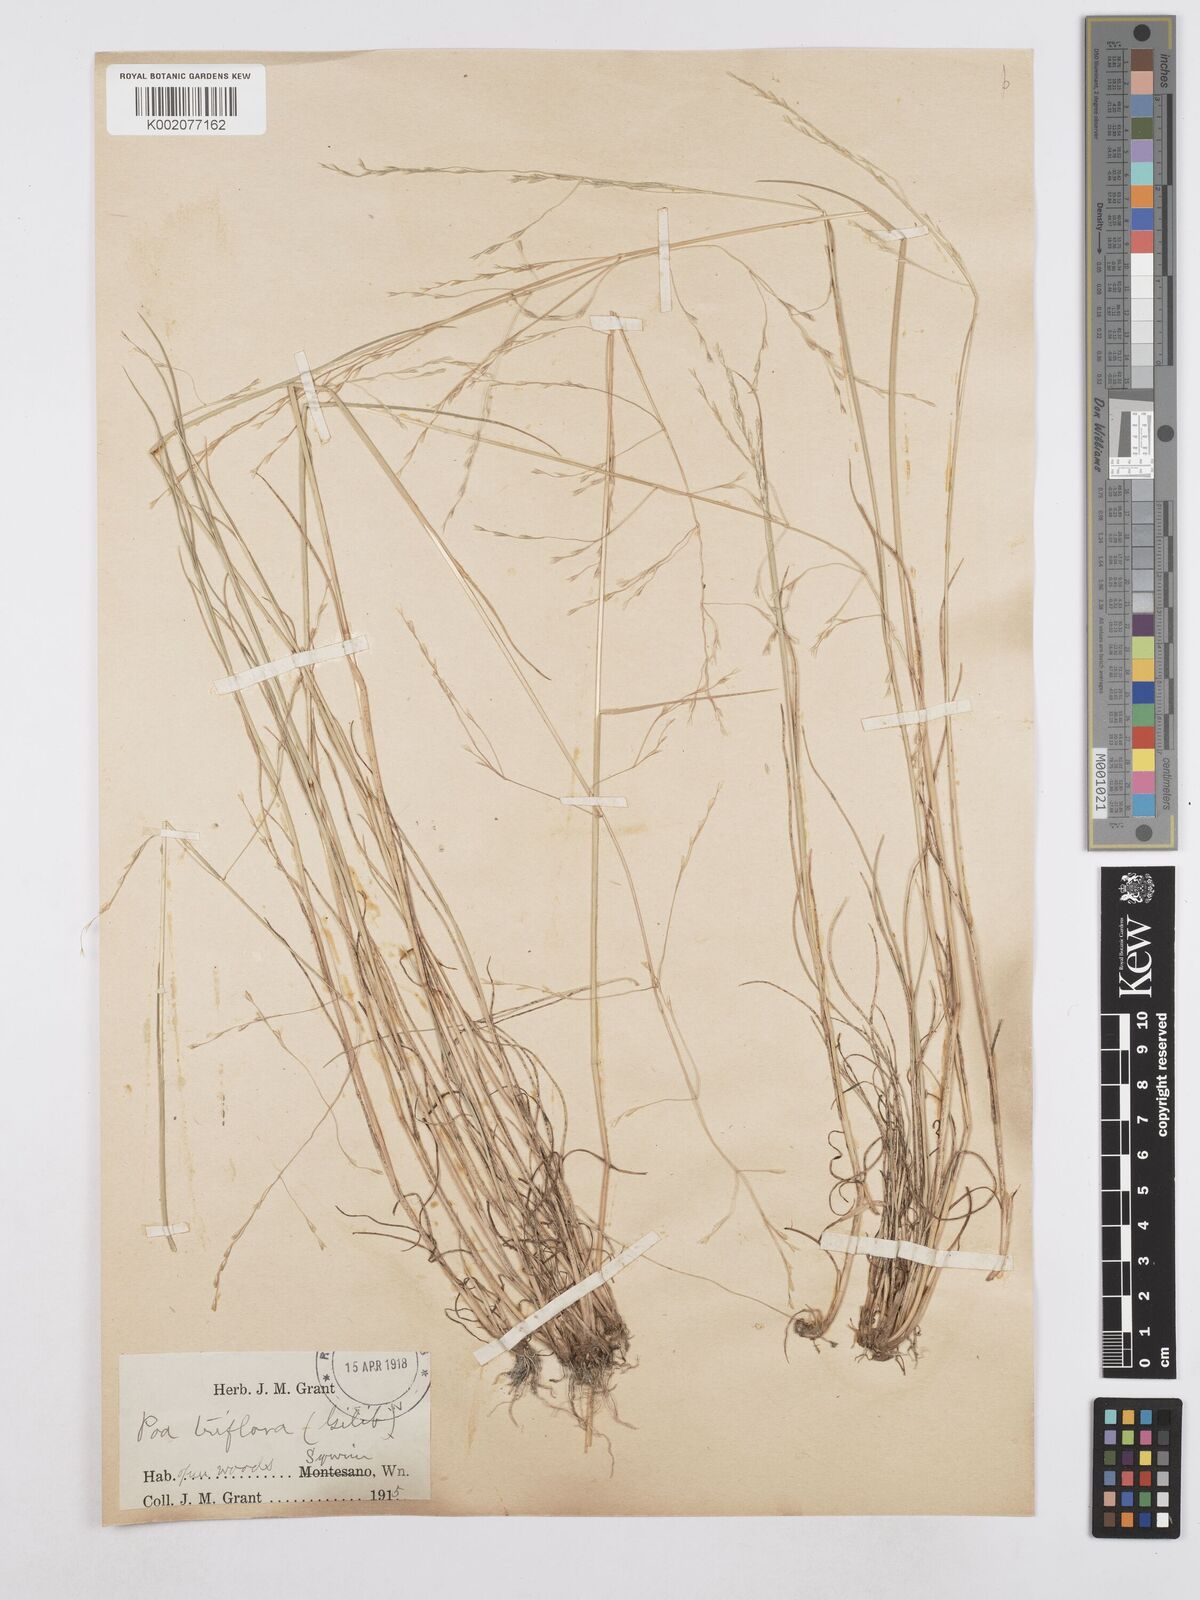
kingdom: Plantae
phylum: Tracheophyta
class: Liliopsida
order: Poales
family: Poaceae
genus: Poa
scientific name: Poa palustris
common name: Swamp meadow-grass
